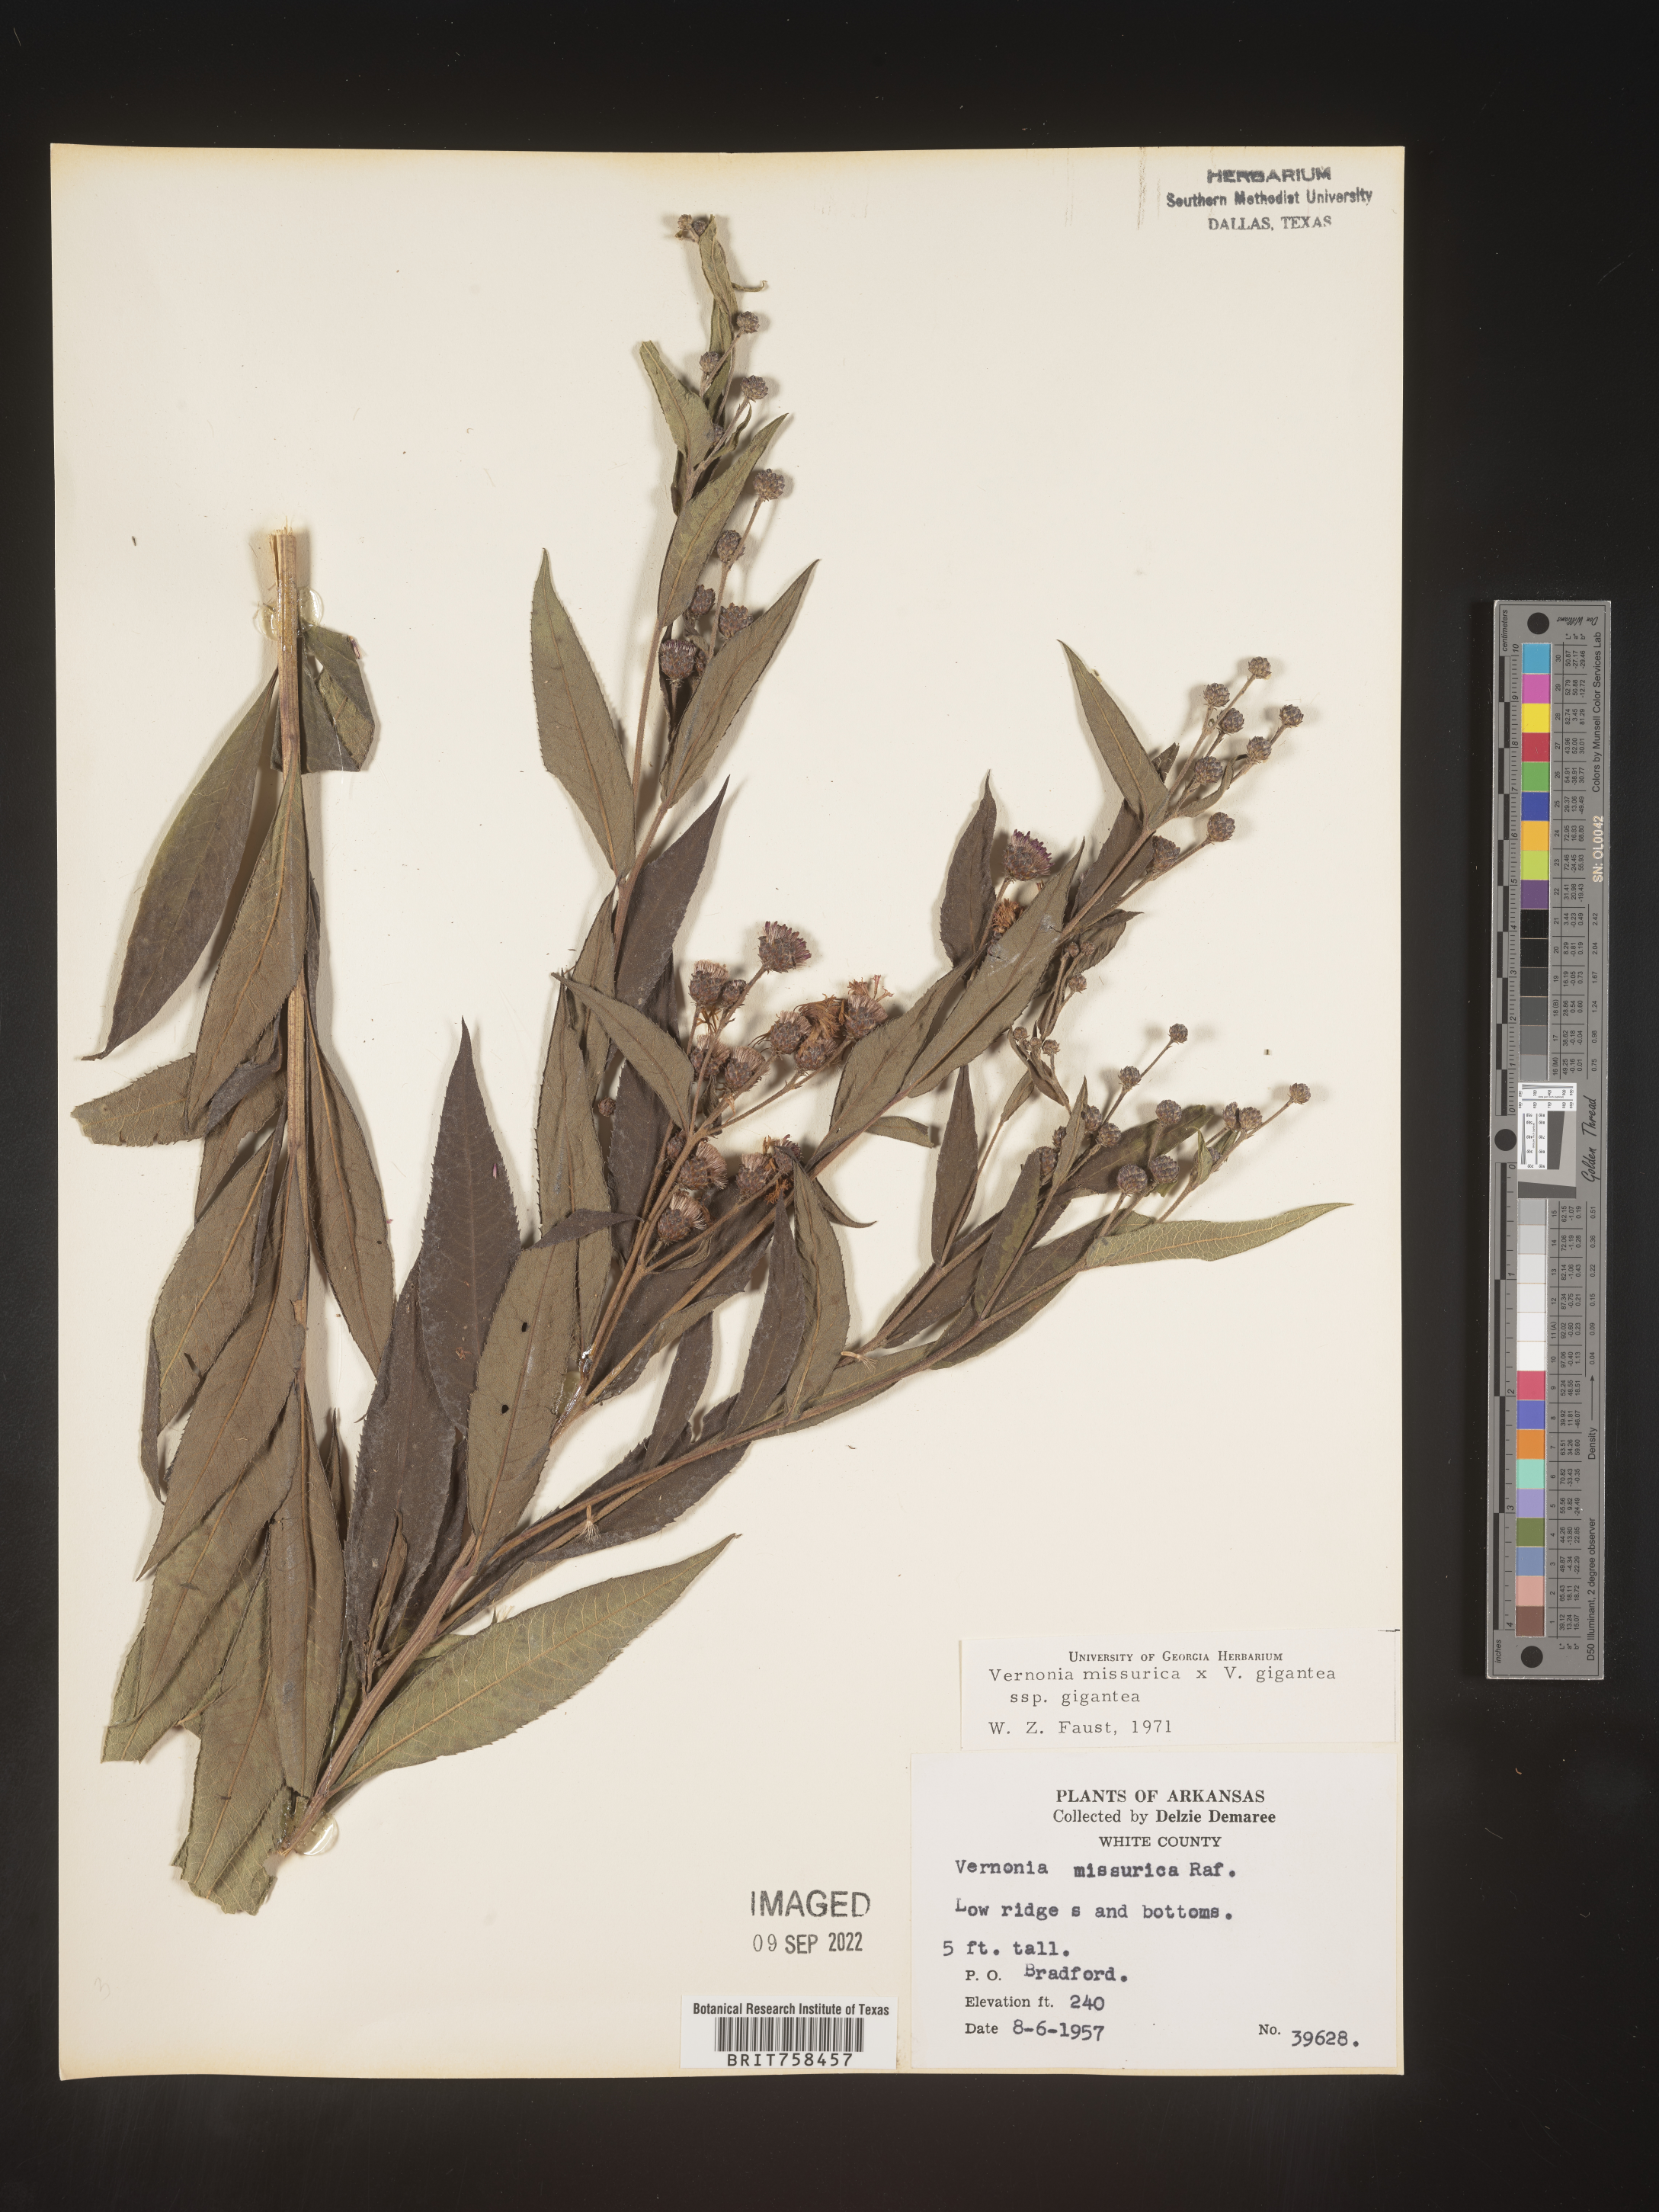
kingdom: Plantae
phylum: Tracheophyta
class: Magnoliopsida
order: Asterales
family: Asteraceae
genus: Vernonia
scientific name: Vernonia missurica
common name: Missouri ironweed
